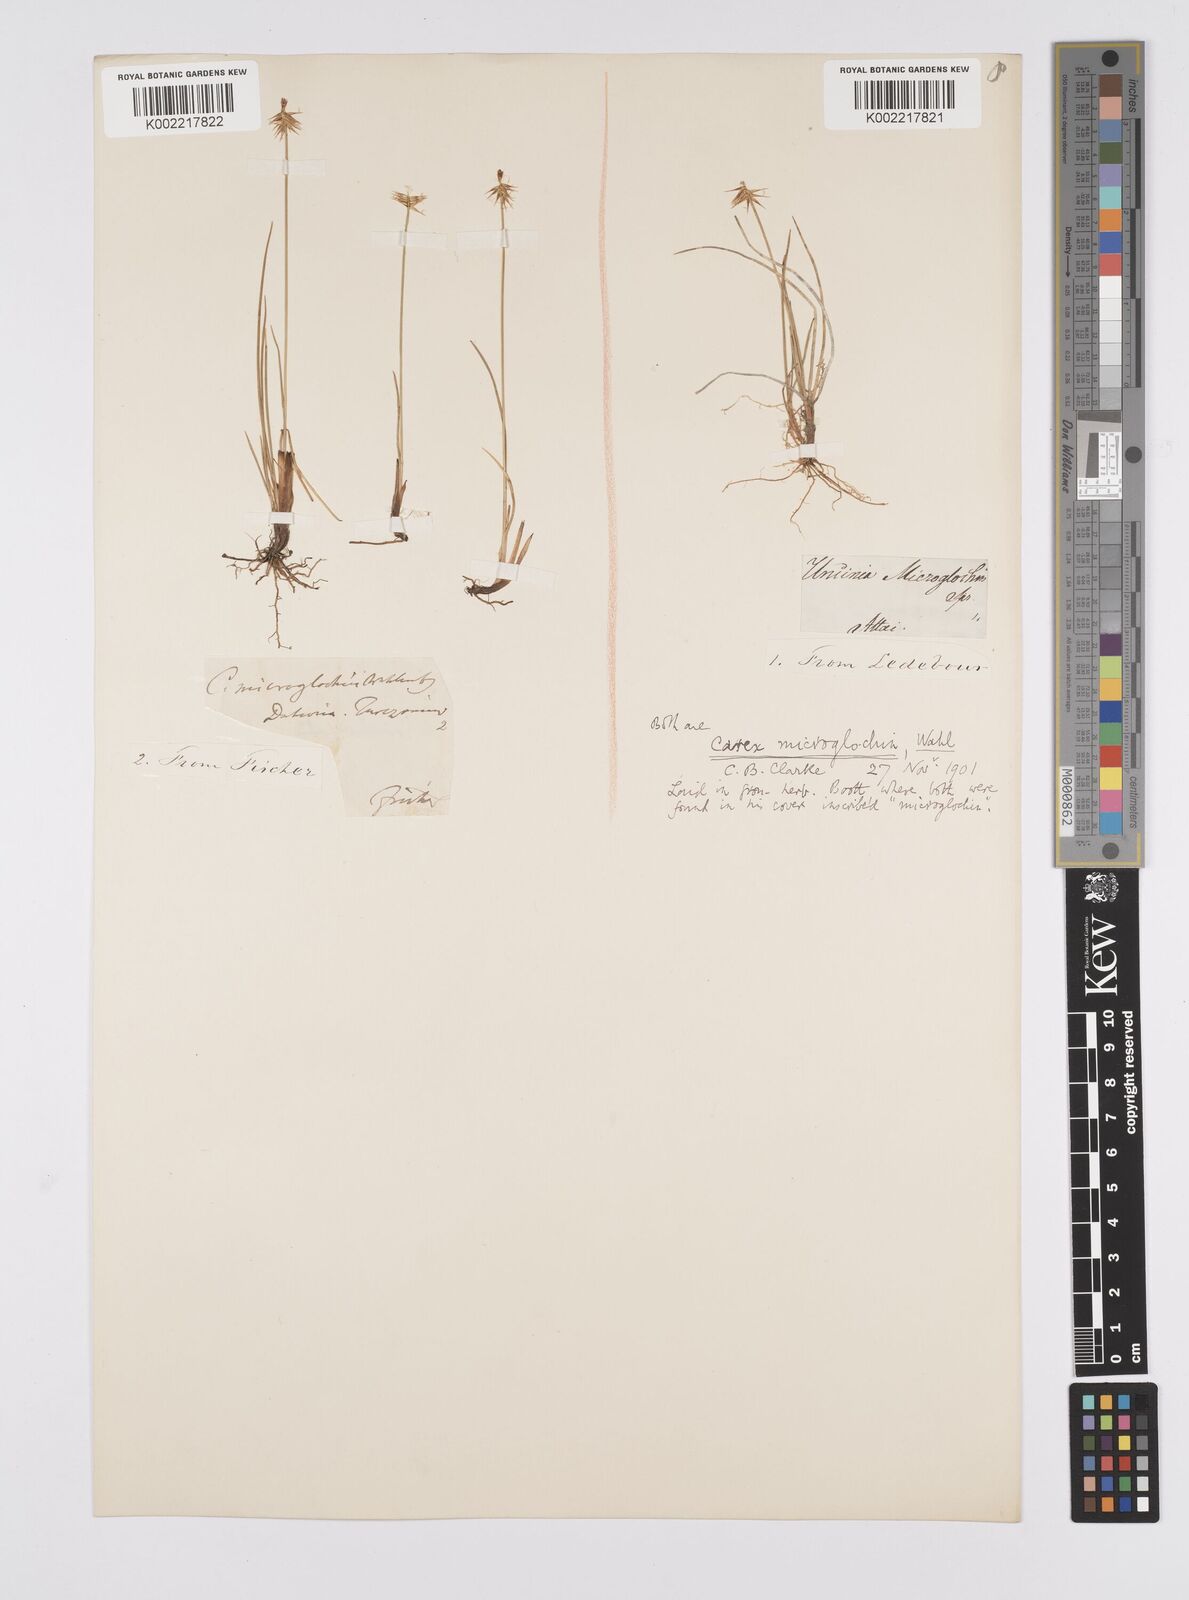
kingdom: Plantae
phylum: Tracheophyta
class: Liliopsida
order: Poales
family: Cyperaceae
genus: Carex
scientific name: Carex microglochin
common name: Bristle sedge
